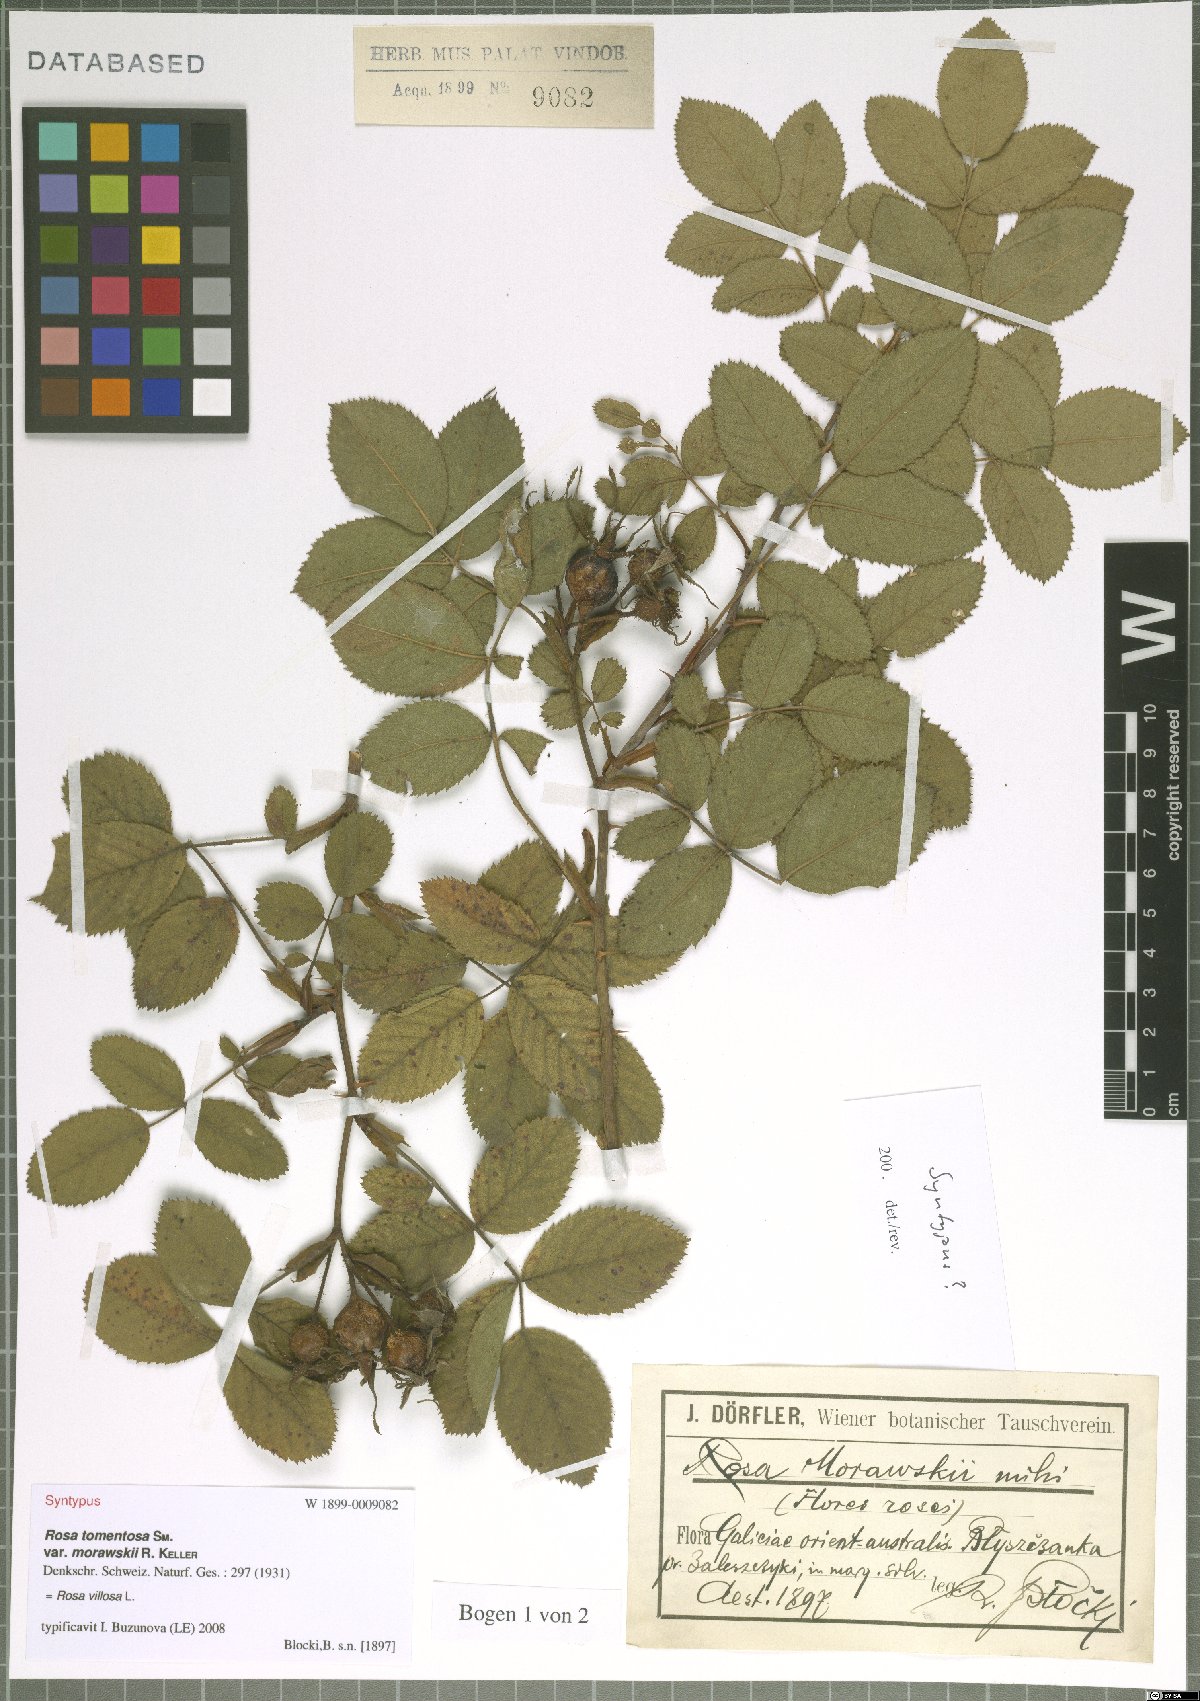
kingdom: Plantae
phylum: Tracheophyta
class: Magnoliopsida
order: Rosales
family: Rosaceae
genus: Rosa
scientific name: Rosa villosa
